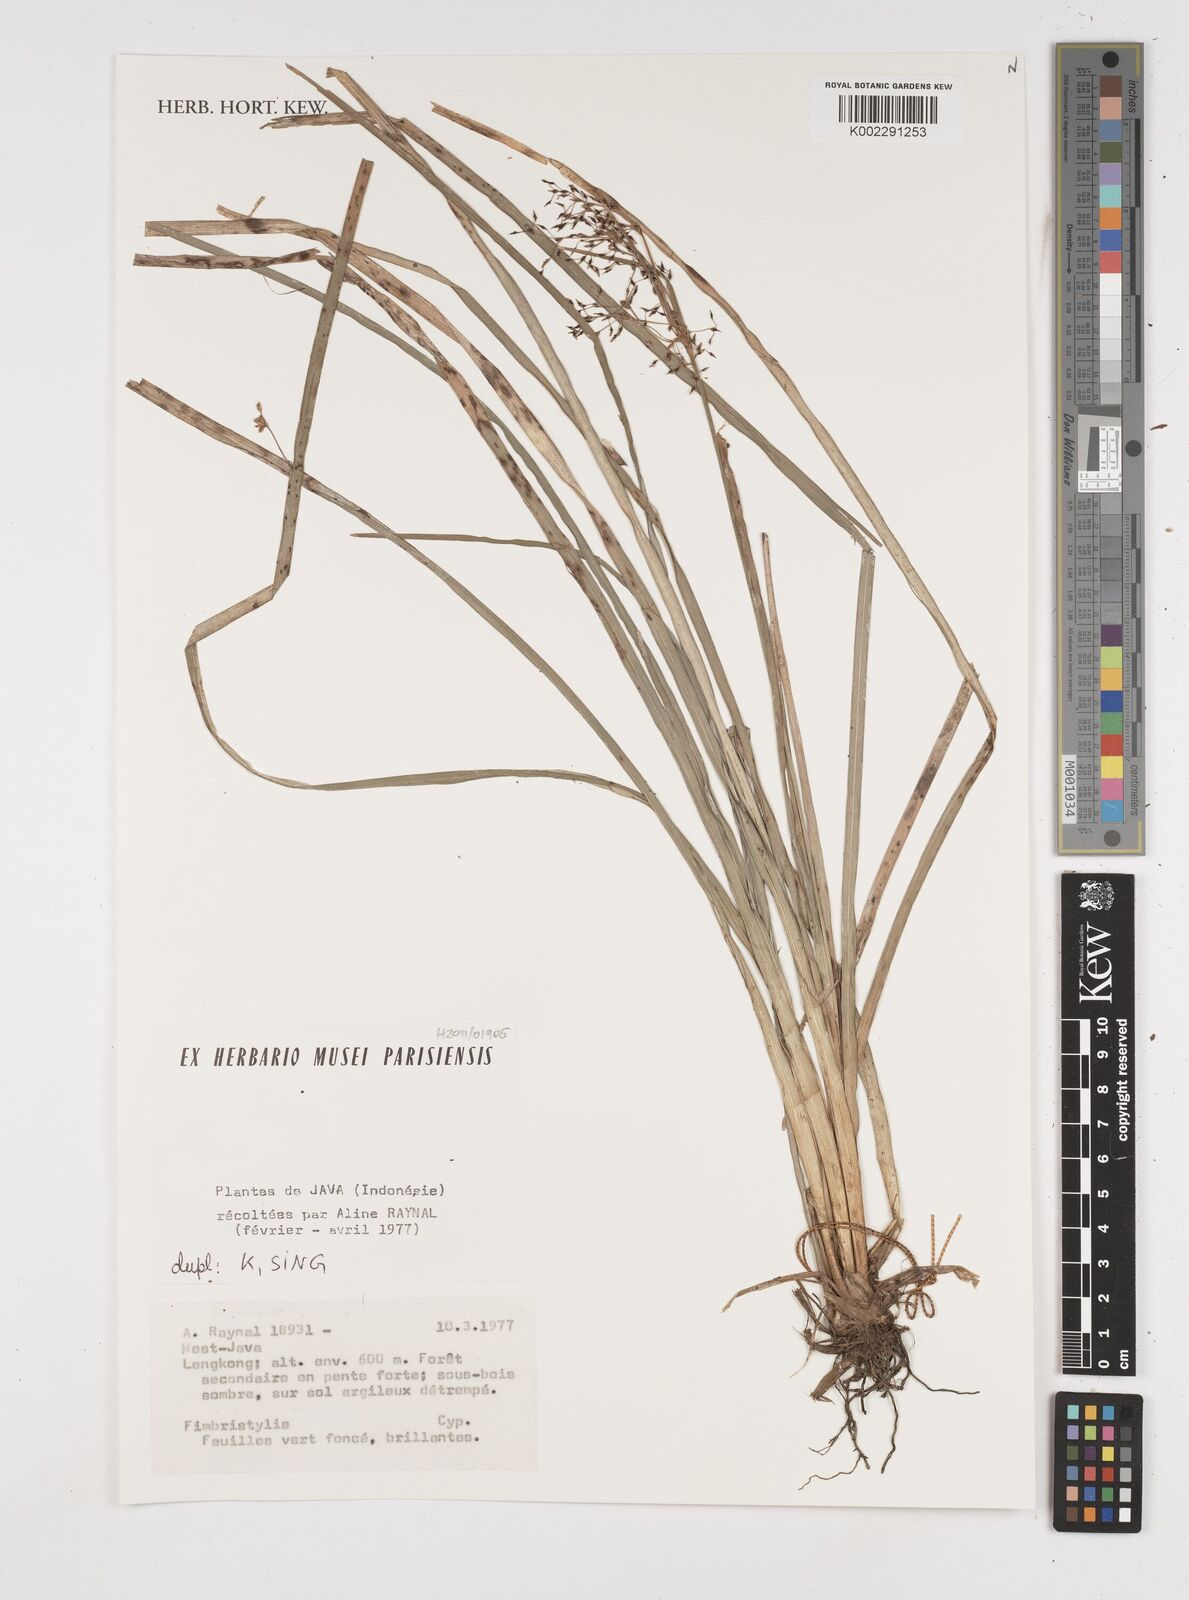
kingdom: Plantae
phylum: Tracheophyta
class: Liliopsida
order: Poales
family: Cyperaceae
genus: Fimbristylis
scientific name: Fimbristylis
